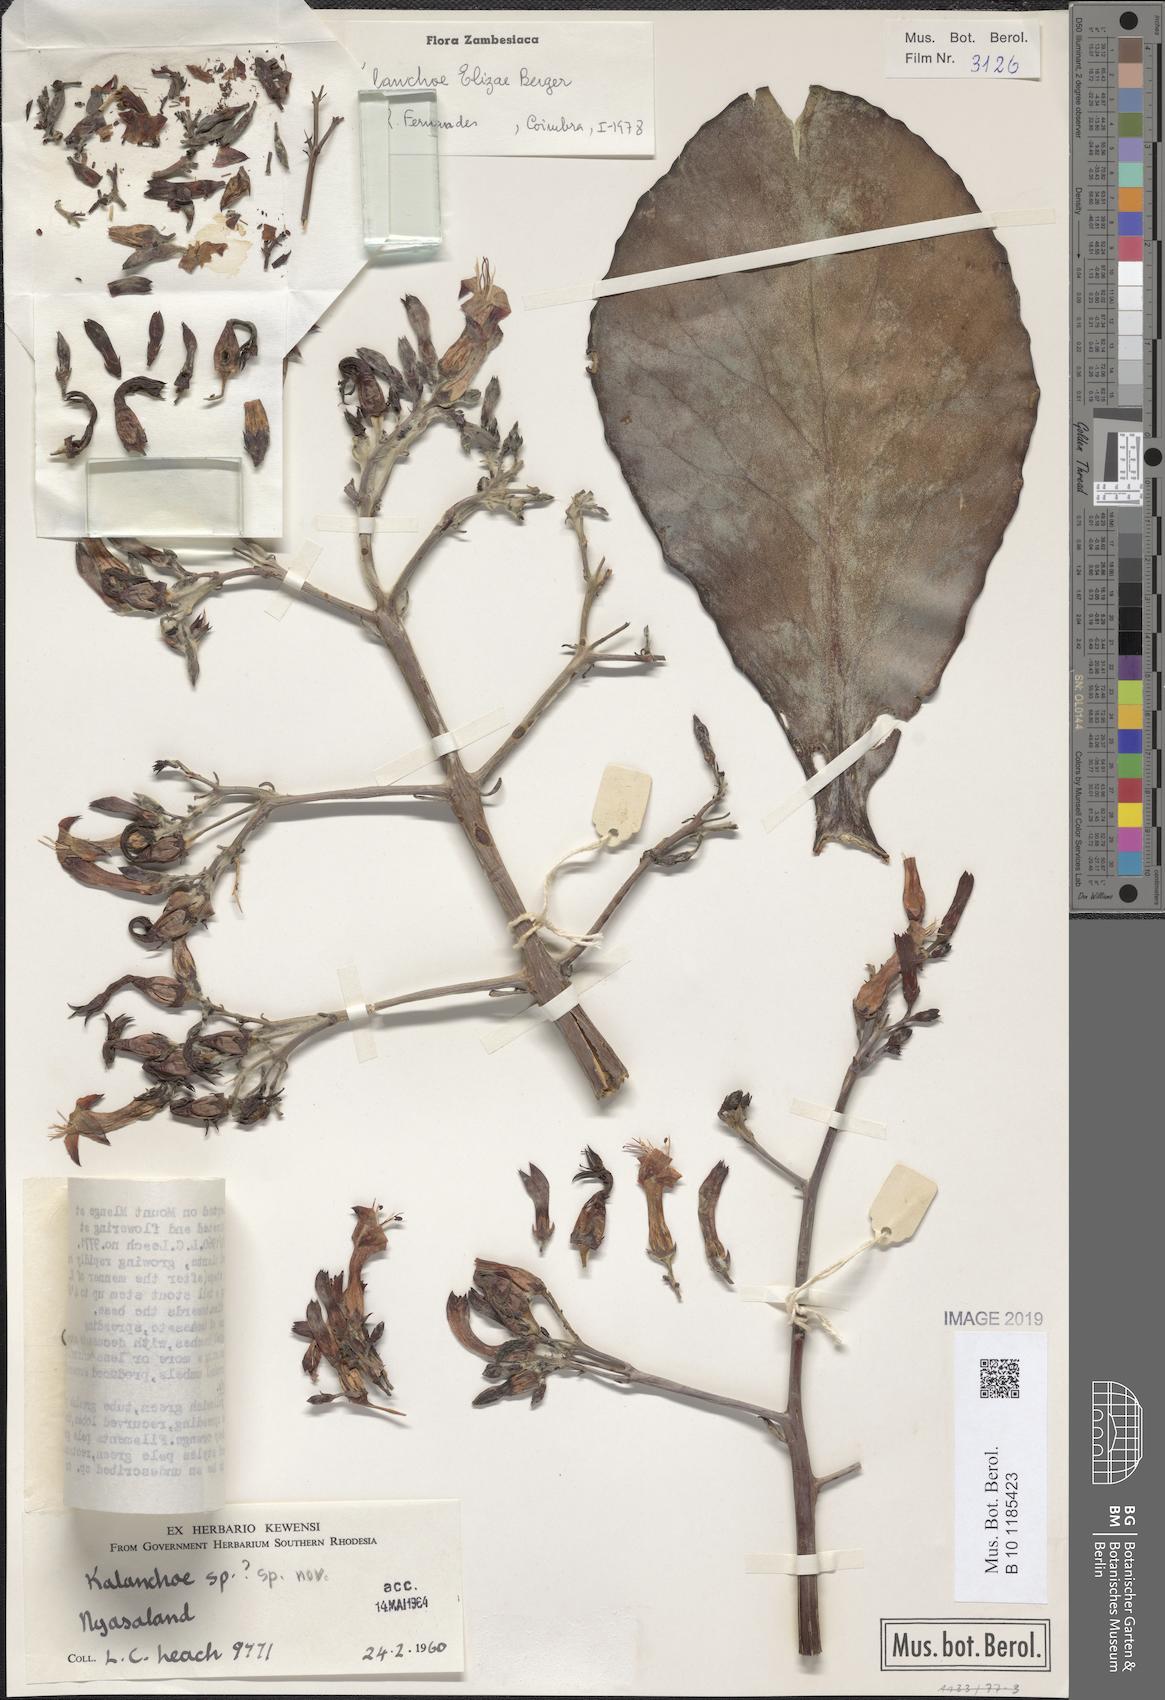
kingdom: Plantae
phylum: Tracheophyta
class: Magnoliopsida
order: Saxifragales
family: Crassulaceae
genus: Kalanchoe
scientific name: Kalanchoe elizae
